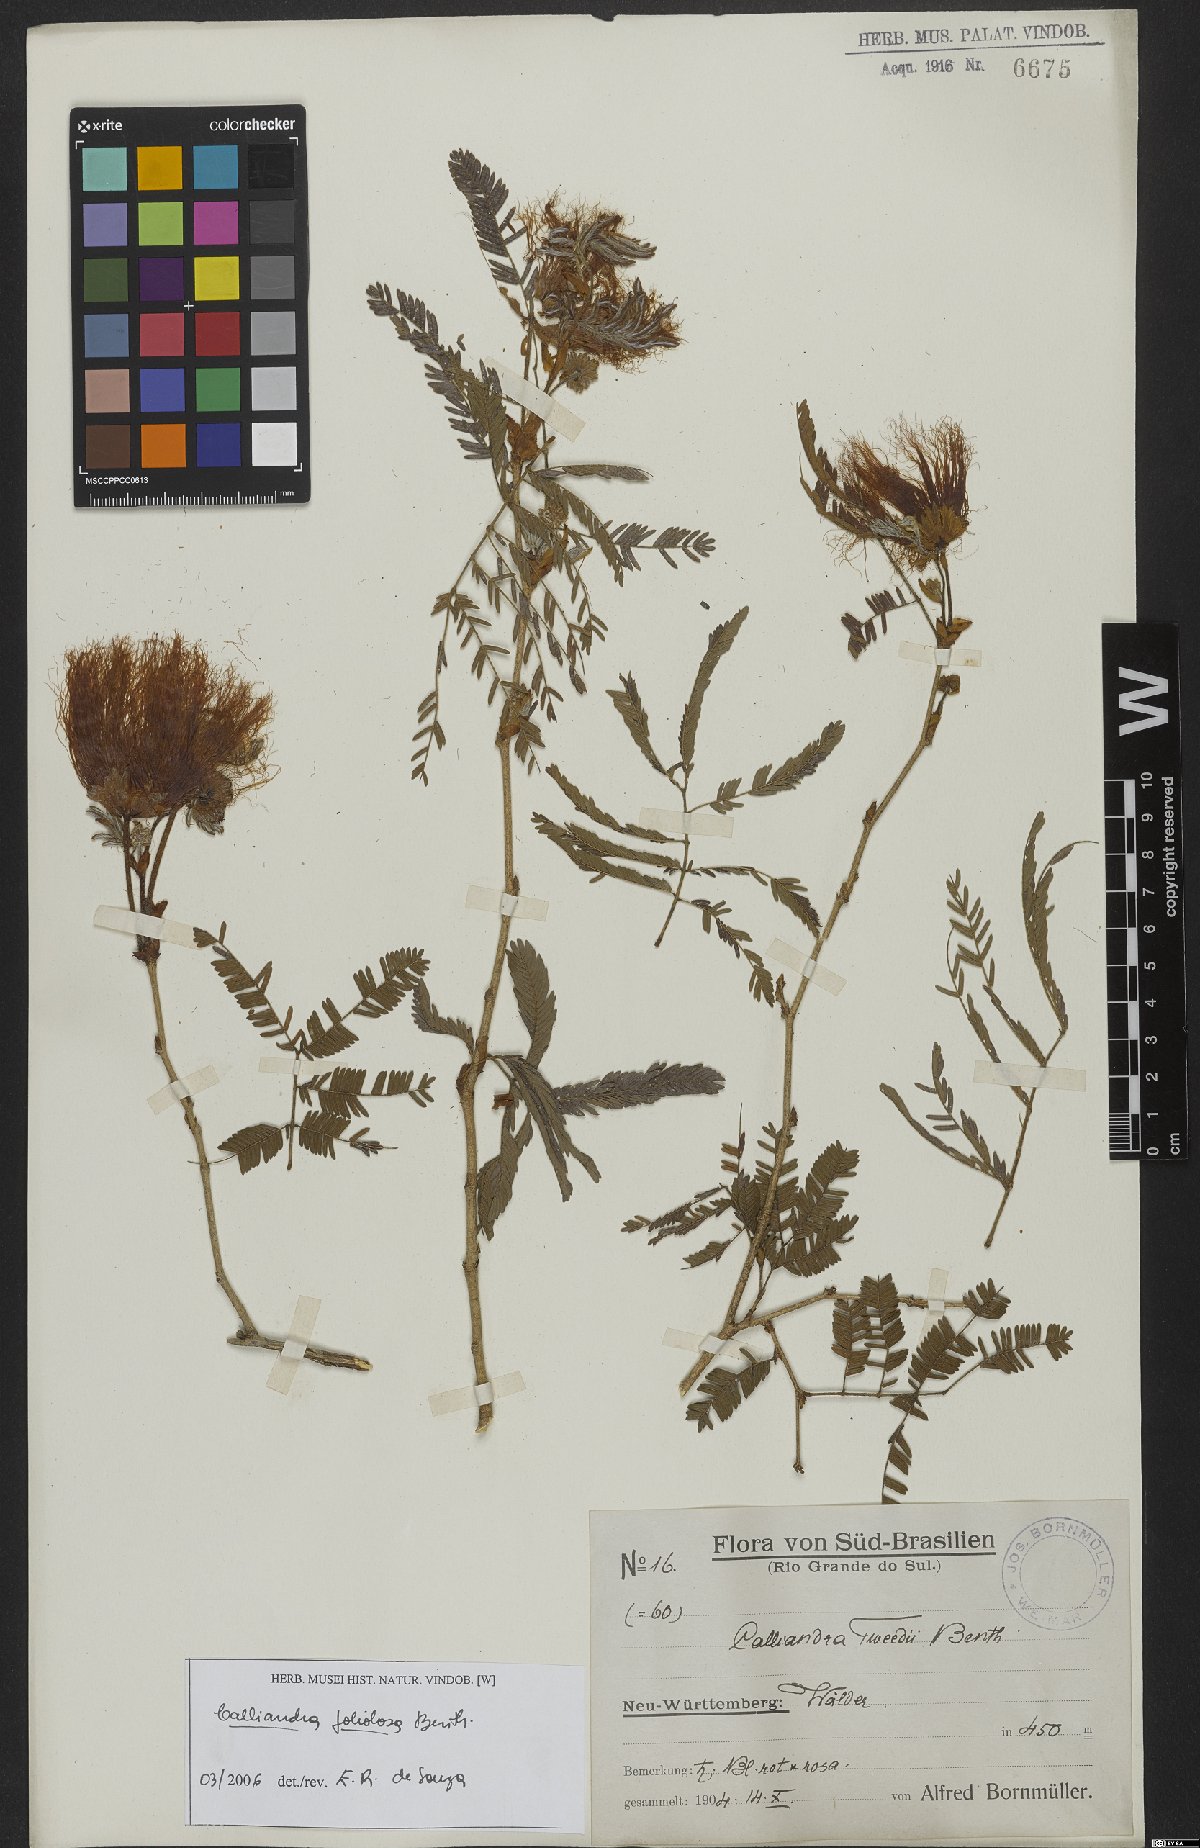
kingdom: Plantae
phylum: Tracheophyta
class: Magnoliopsida
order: Fabales
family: Fabaceae
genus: Calliandra
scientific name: Calliandra foliolosa
